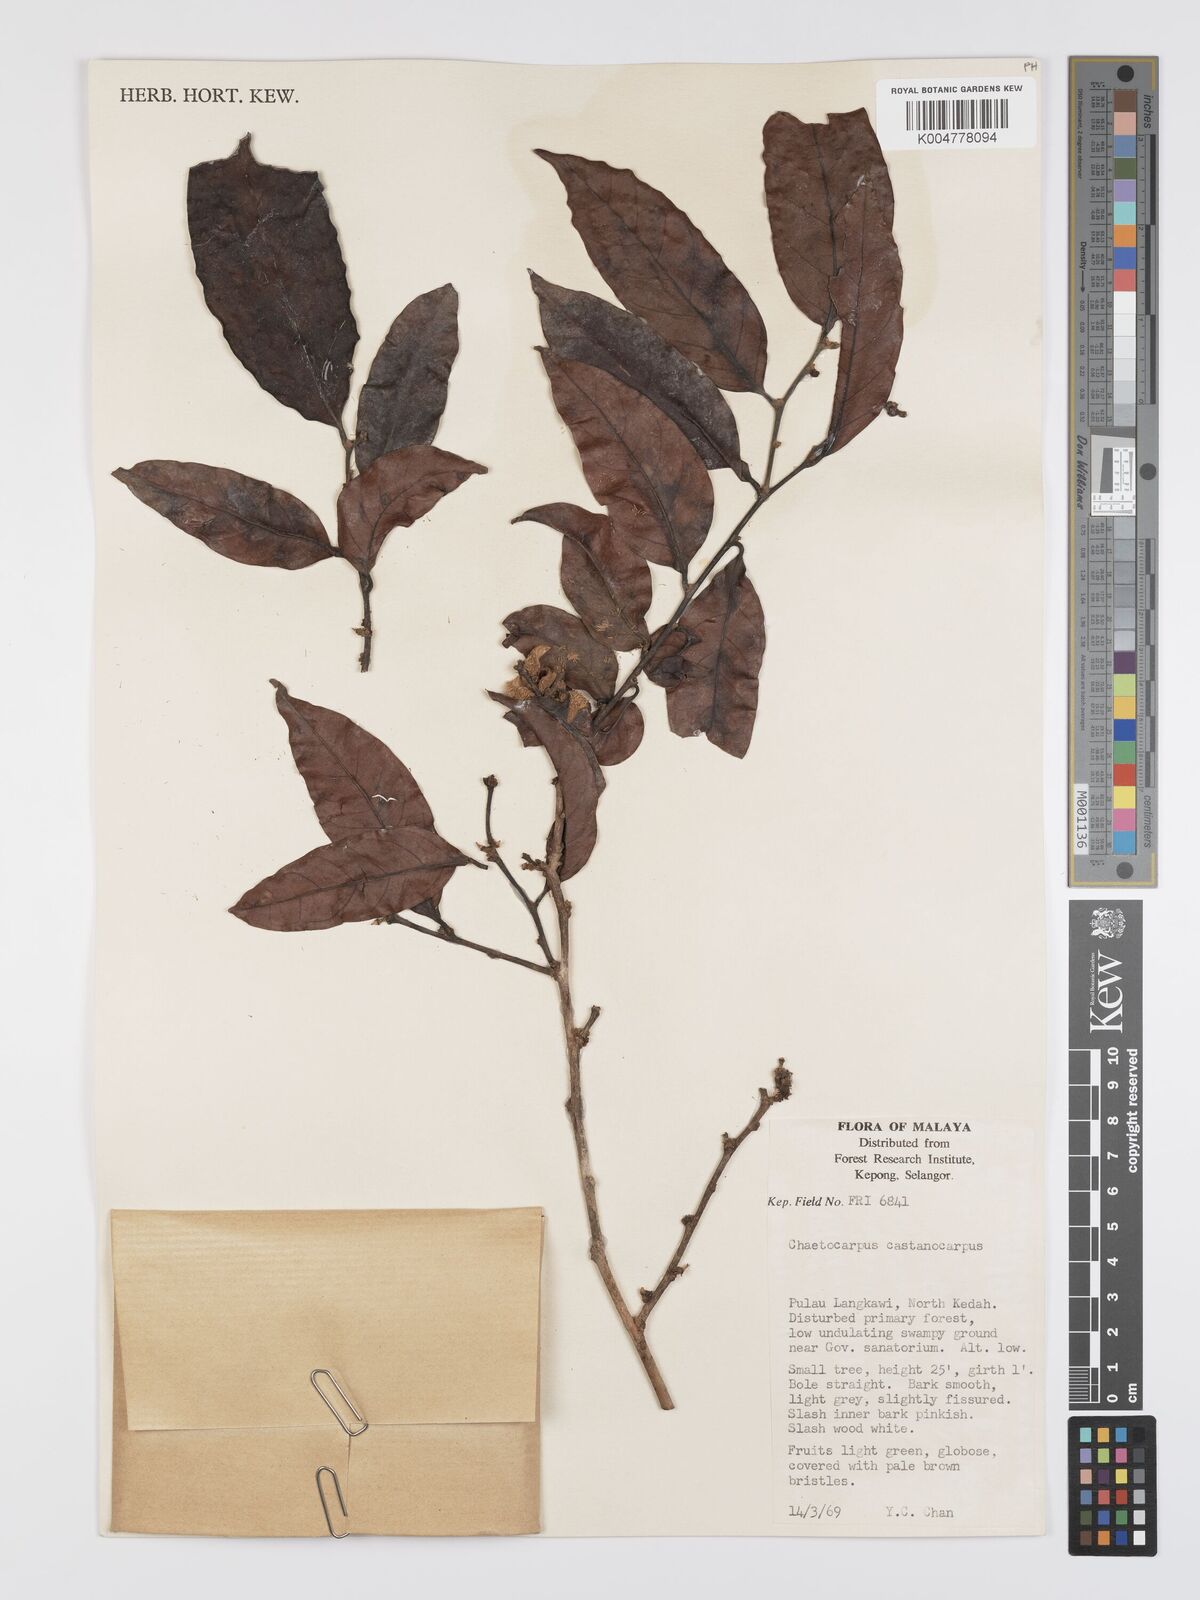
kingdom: Plantae
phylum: Tracheophyta
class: Magnoliopsida
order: Malpighiales
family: Peraceae
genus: Chaetocarpus
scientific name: Chaetocarpus castanocarpus
